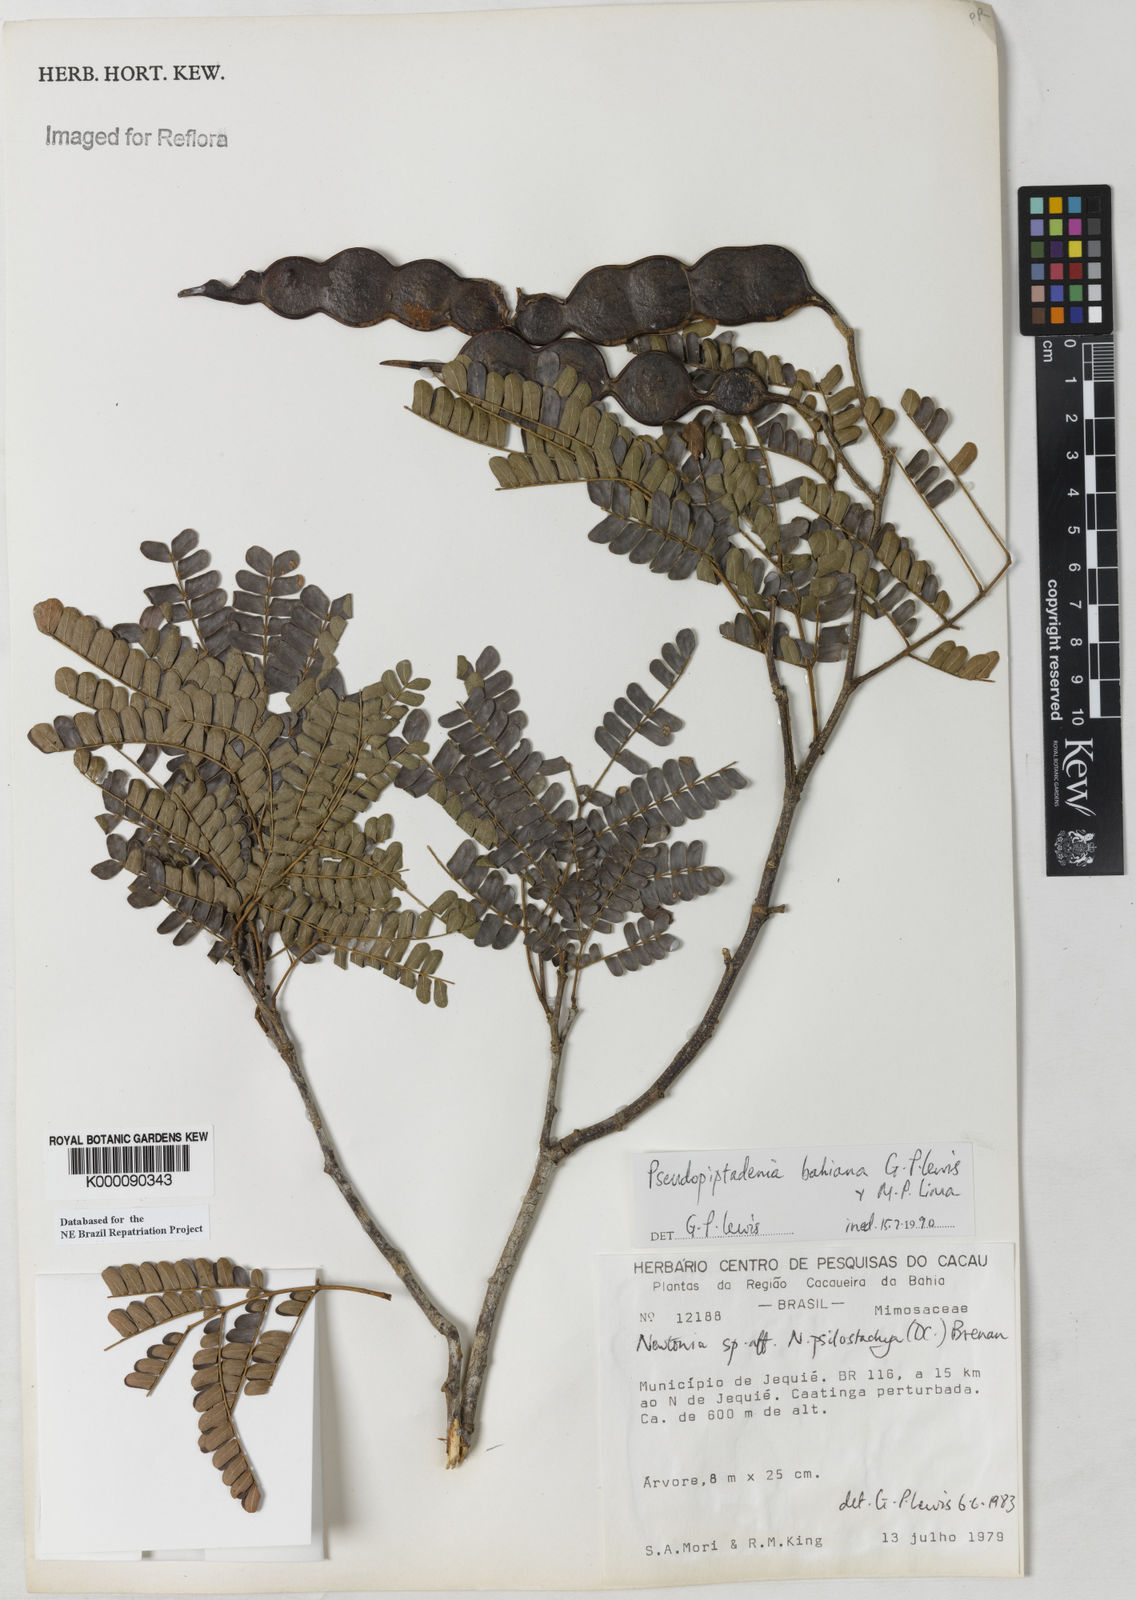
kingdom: Plantae
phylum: Tracheophyta
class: Magnoliopsida
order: Fabales
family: Fabaceae
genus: Pseudopiptadenia
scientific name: Pseudopiptadenia bahiana
